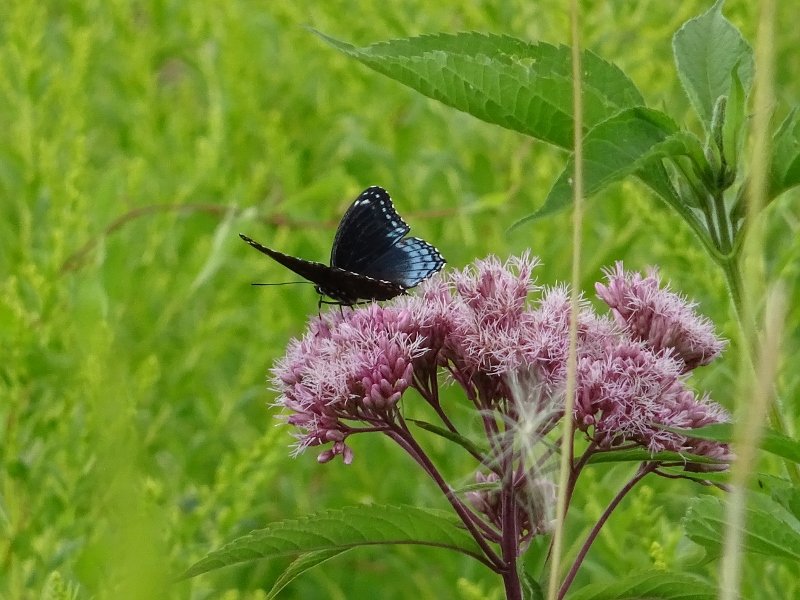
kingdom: Animalia
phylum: Arthropoda
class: Insecta
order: Lepidoptera
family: Nymphalidae
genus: Limenitis
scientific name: Limenitis astyanax
